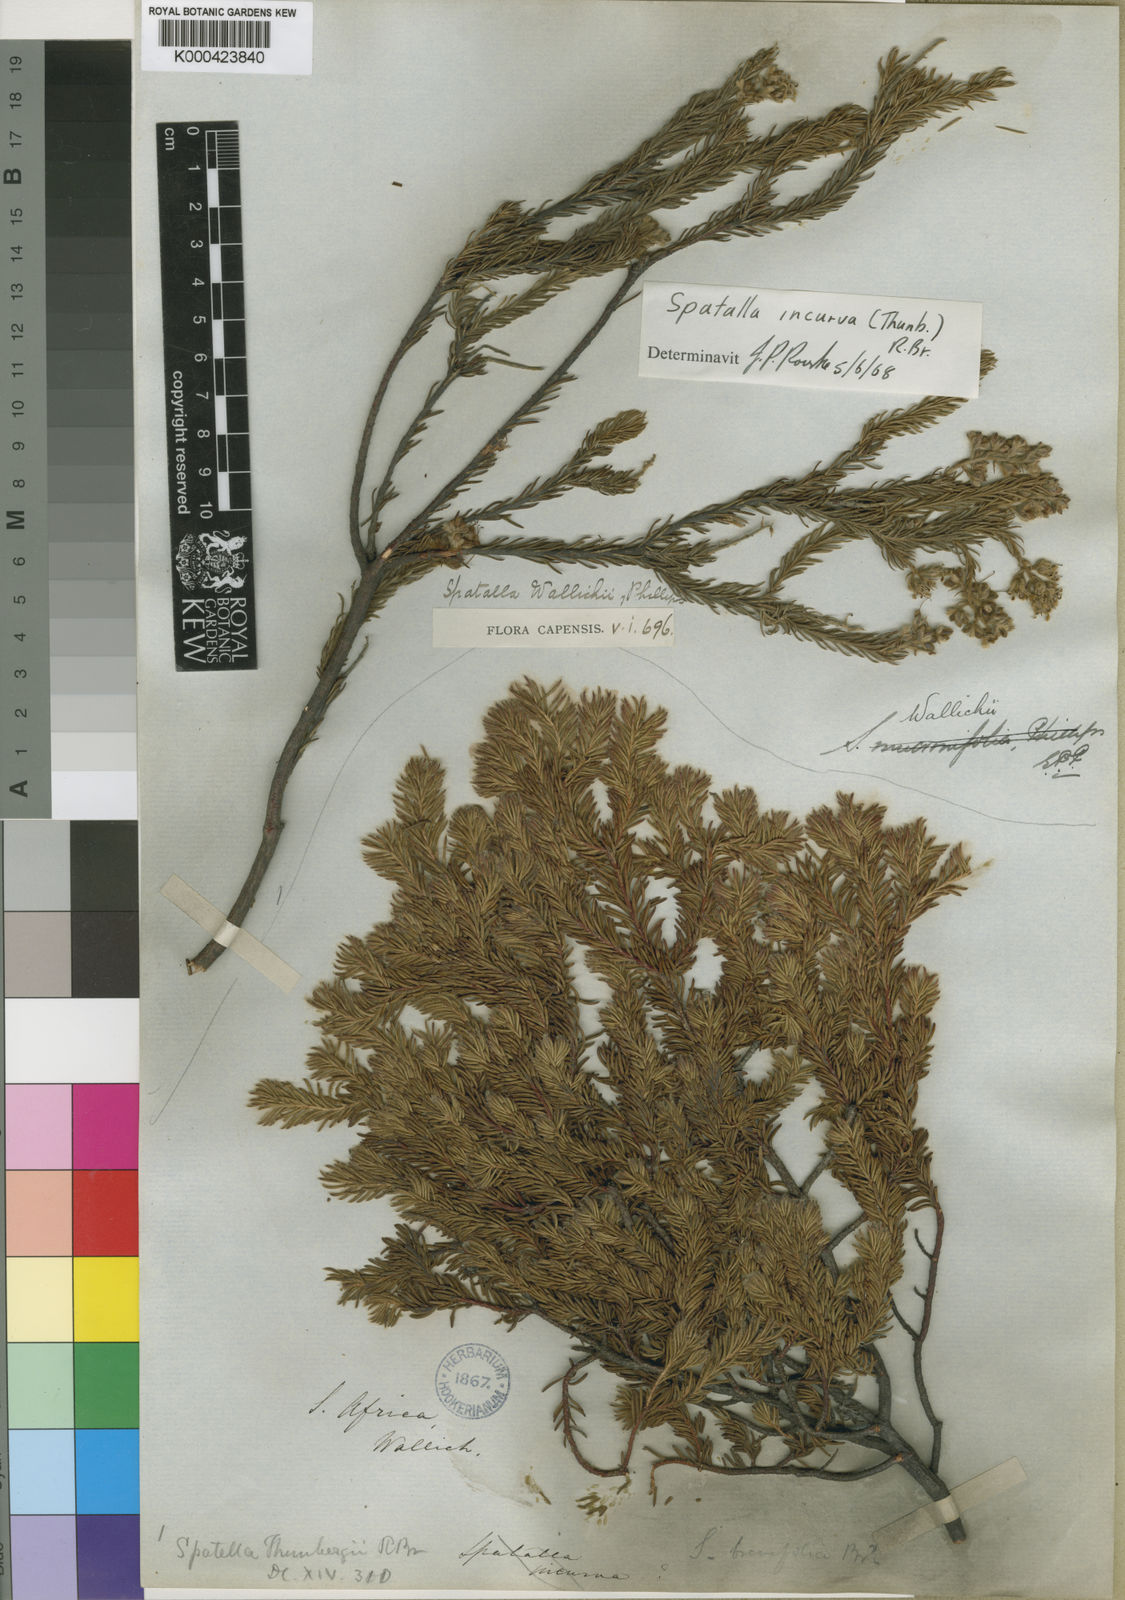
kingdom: Plantae
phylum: Tracheophyta
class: Magnoliopsida
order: Proteales
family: Proteaceae
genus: Spatalla
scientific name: Spatalla incurva
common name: Swan-head spoon
